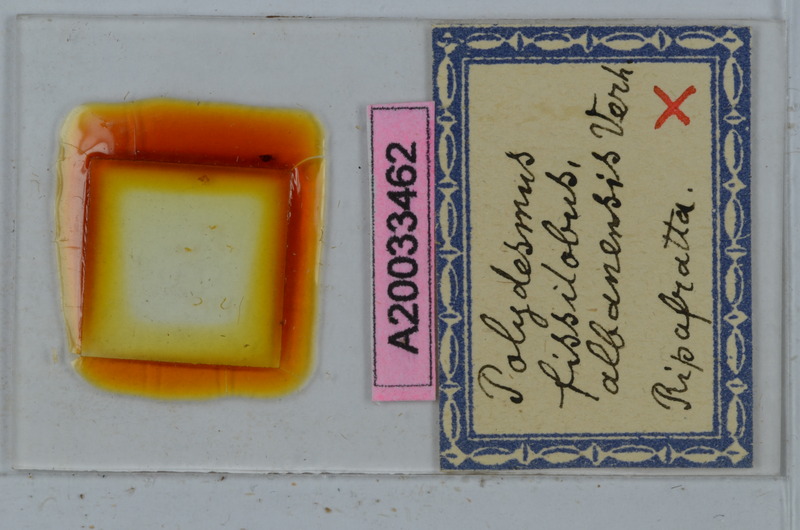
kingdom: Animalia
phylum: Arthropoda
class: Diplopoda
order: Polydesmida
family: Polydesmidae
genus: Polydesmus
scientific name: Polydesmus fissilobus
